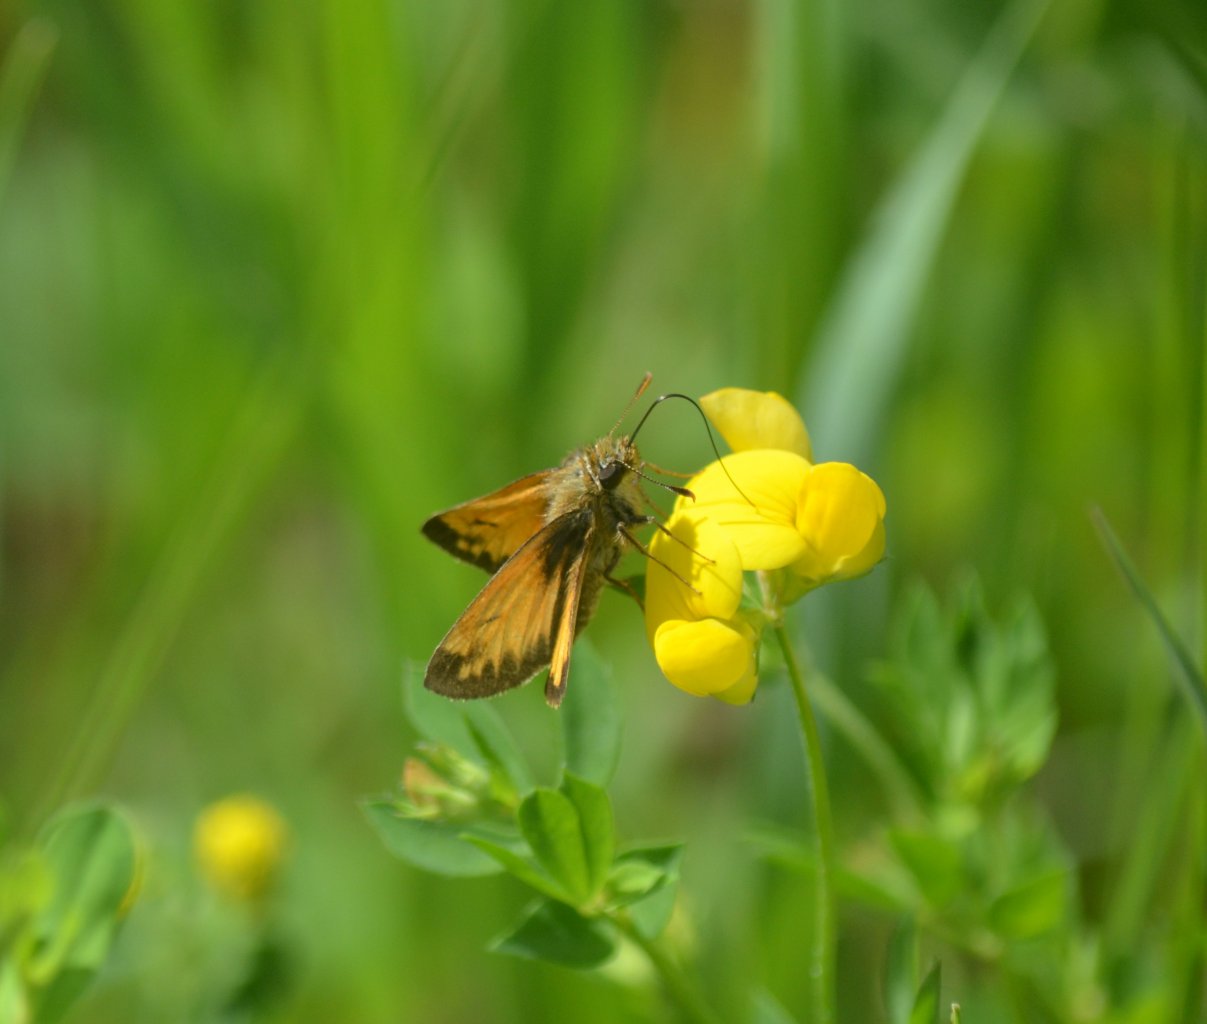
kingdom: Animalia
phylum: Arthropoda
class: Insecta
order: Lepidoptera
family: Hesperiidae
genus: Lon
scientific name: Lon hobomok
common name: Hobomok Skipper
